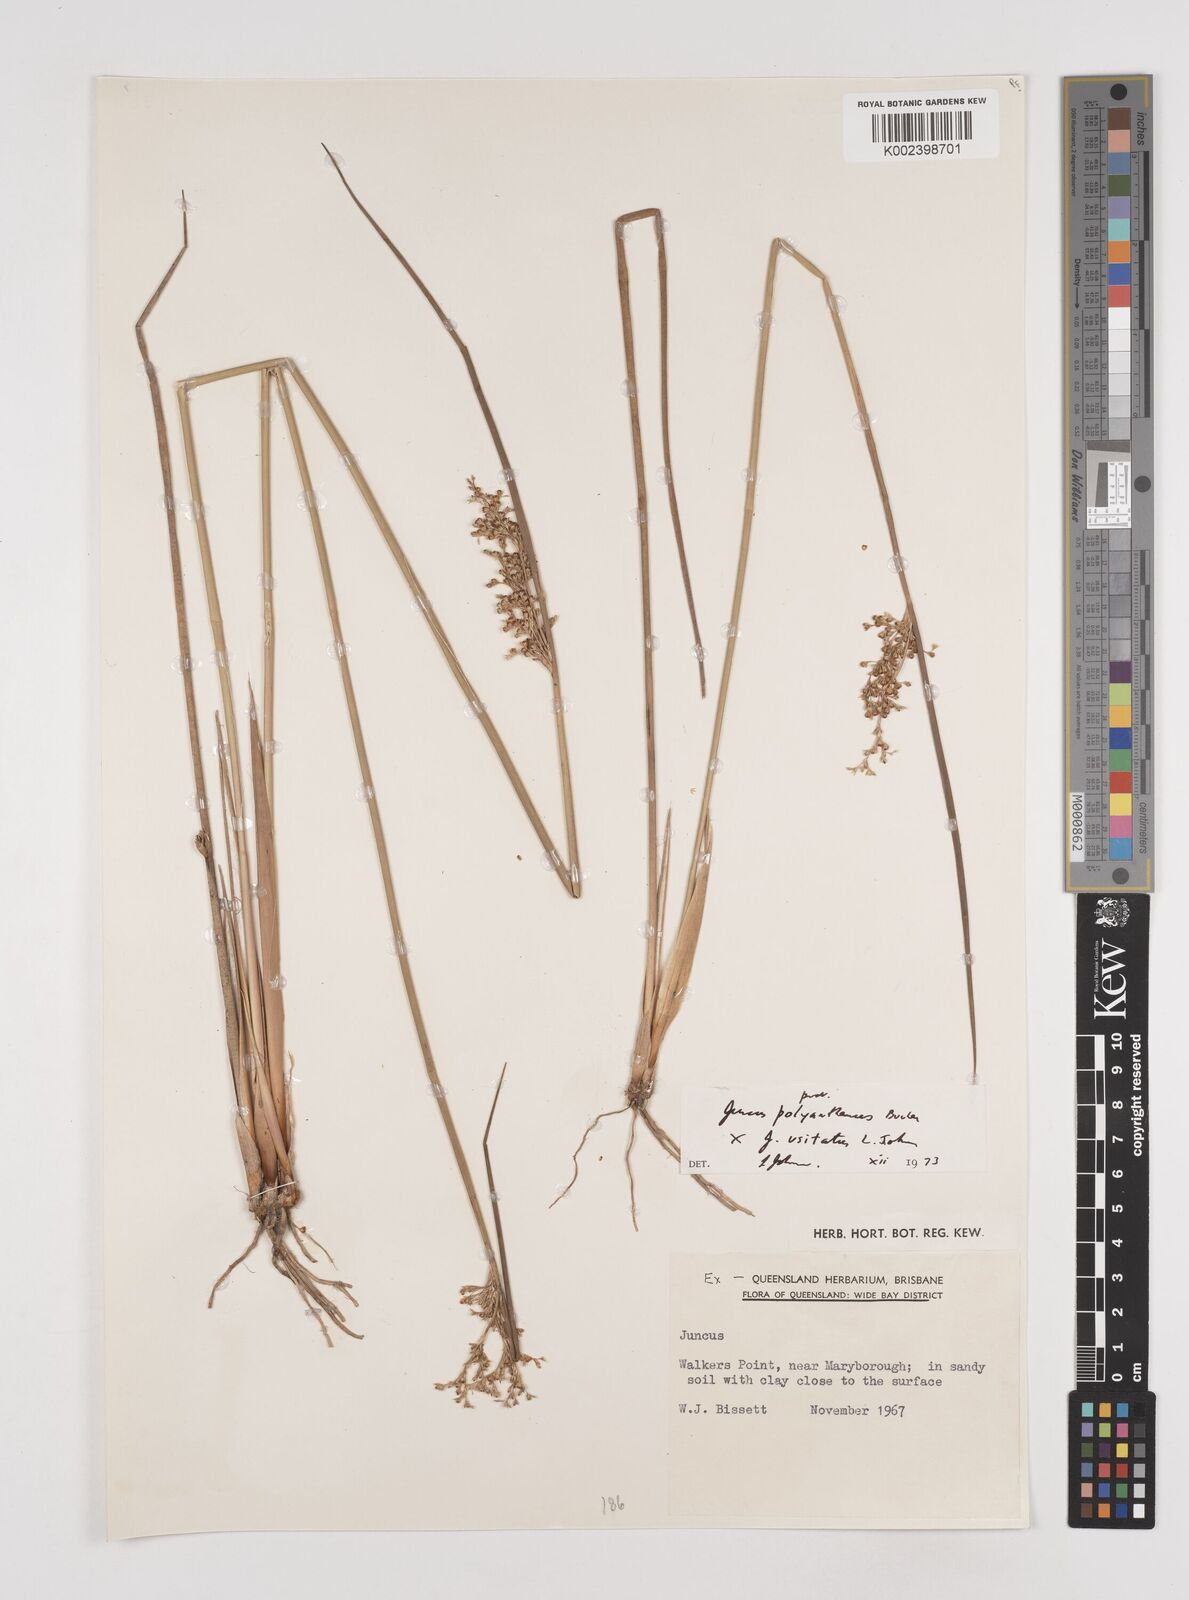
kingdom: Plantae
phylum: Tracheophyta
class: Liliopsida
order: Poales
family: Juncaceae
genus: Juncus
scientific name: Juncus polyanthemus
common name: Manyflower rush
